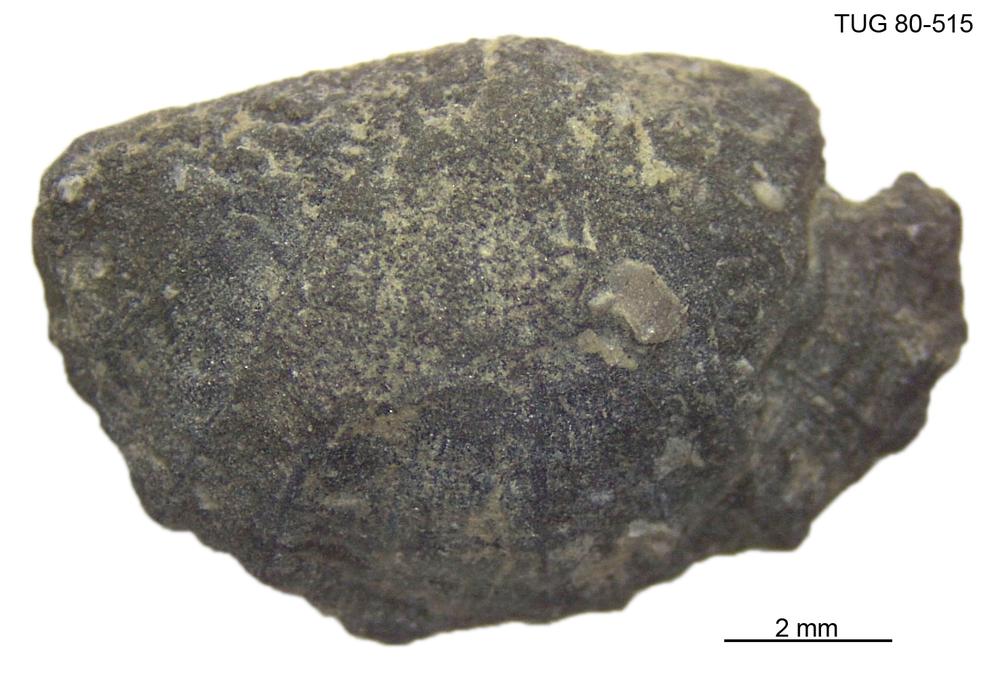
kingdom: Animalia
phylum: Brachiopoda
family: Sowerbyellidae
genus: Sowerbyella
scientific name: Sowerbyella
